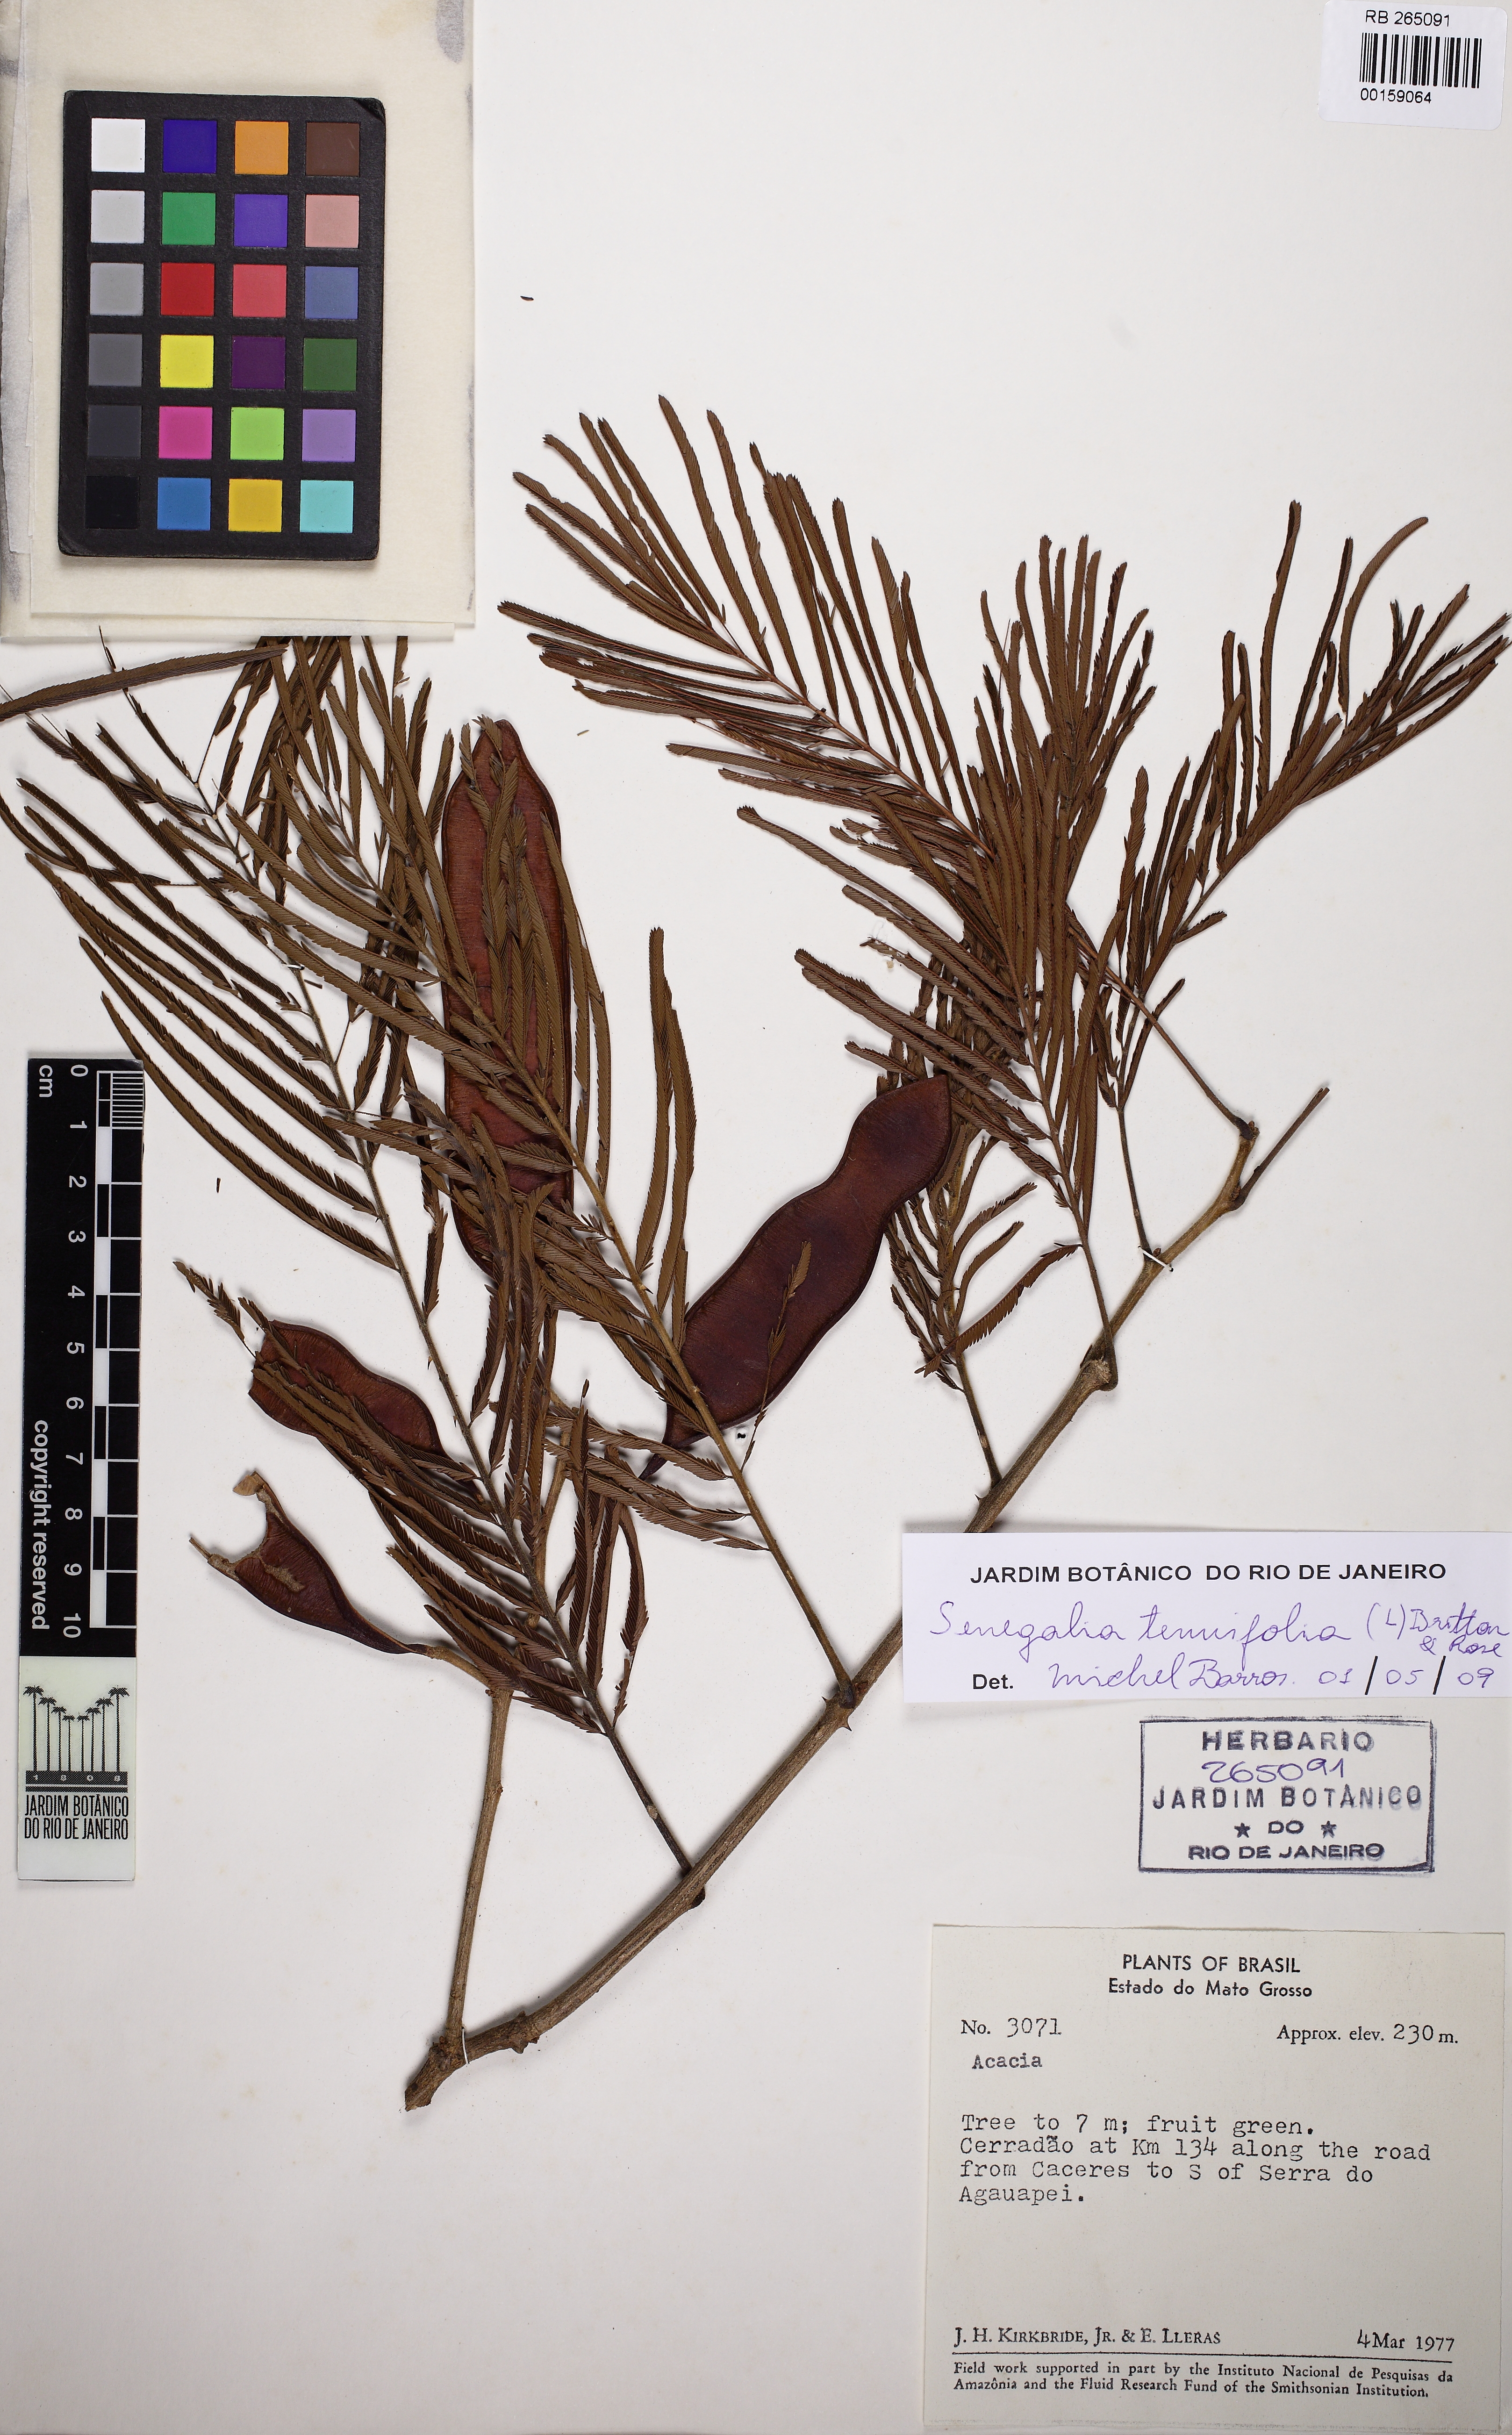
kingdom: Plantae
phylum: Tracheophyta
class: Magnoliopsida
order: Fabales
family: Fabaceae
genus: Senegalia
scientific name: Senegalia martii
